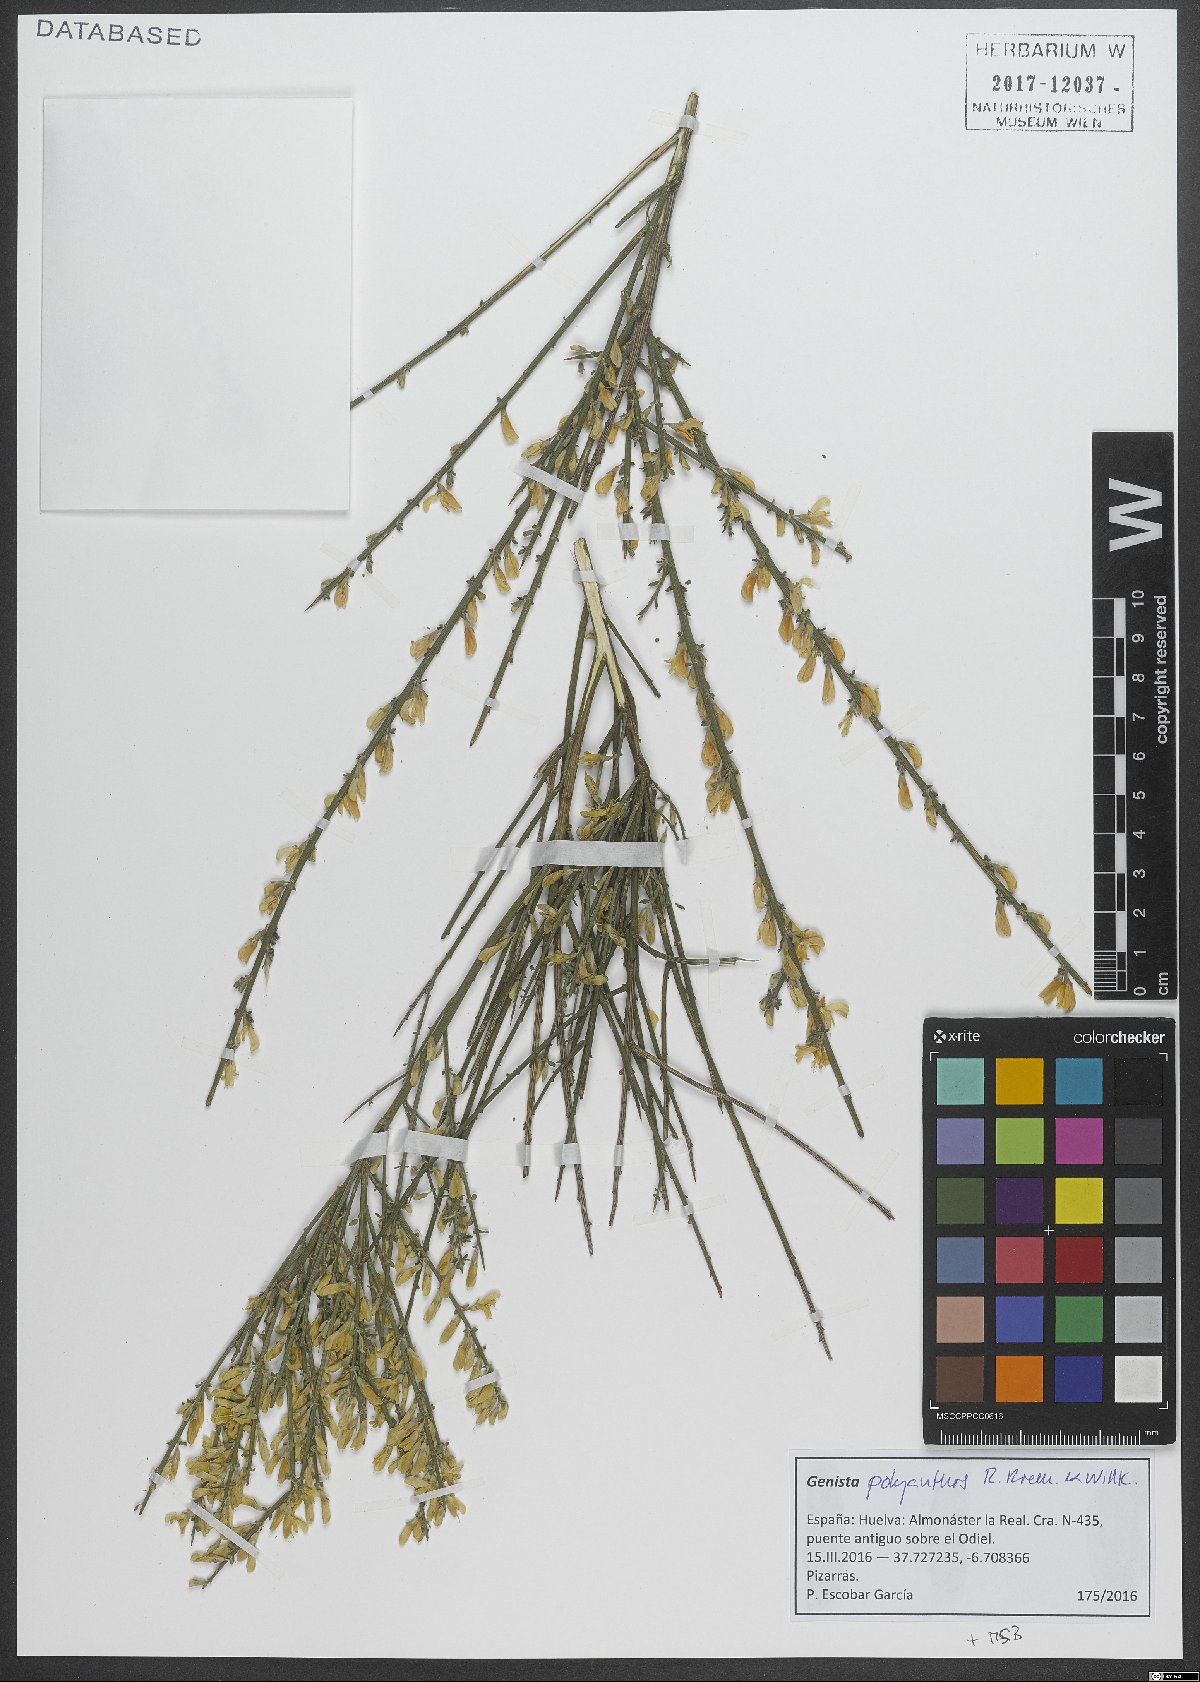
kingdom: Plantae
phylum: Tracheophyta
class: Magnoliopsida
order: Fabales
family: Fabaceae
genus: Genista
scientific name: Genista polyanthos
